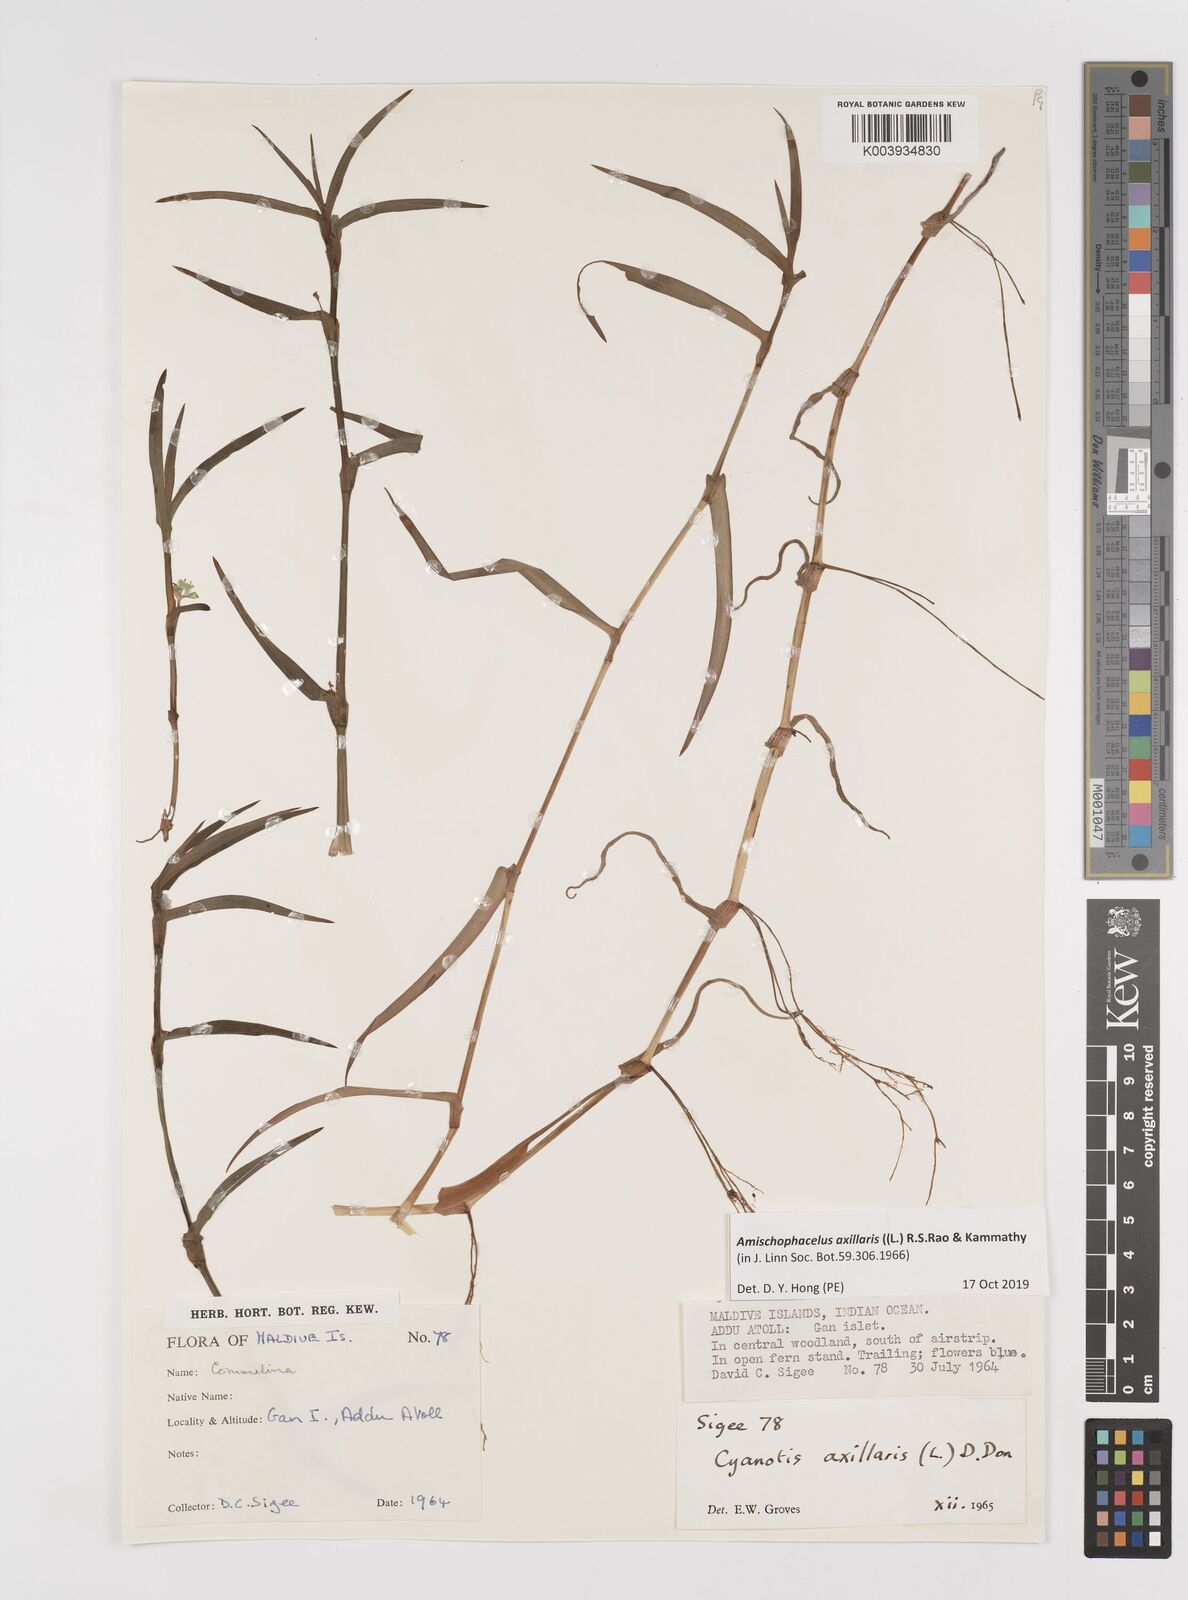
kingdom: Plantae
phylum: Tracheophyta
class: Liliopsida
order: Commelinales
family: Commelinaceae
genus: Cyanotis
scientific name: Cyanotis axillaris
